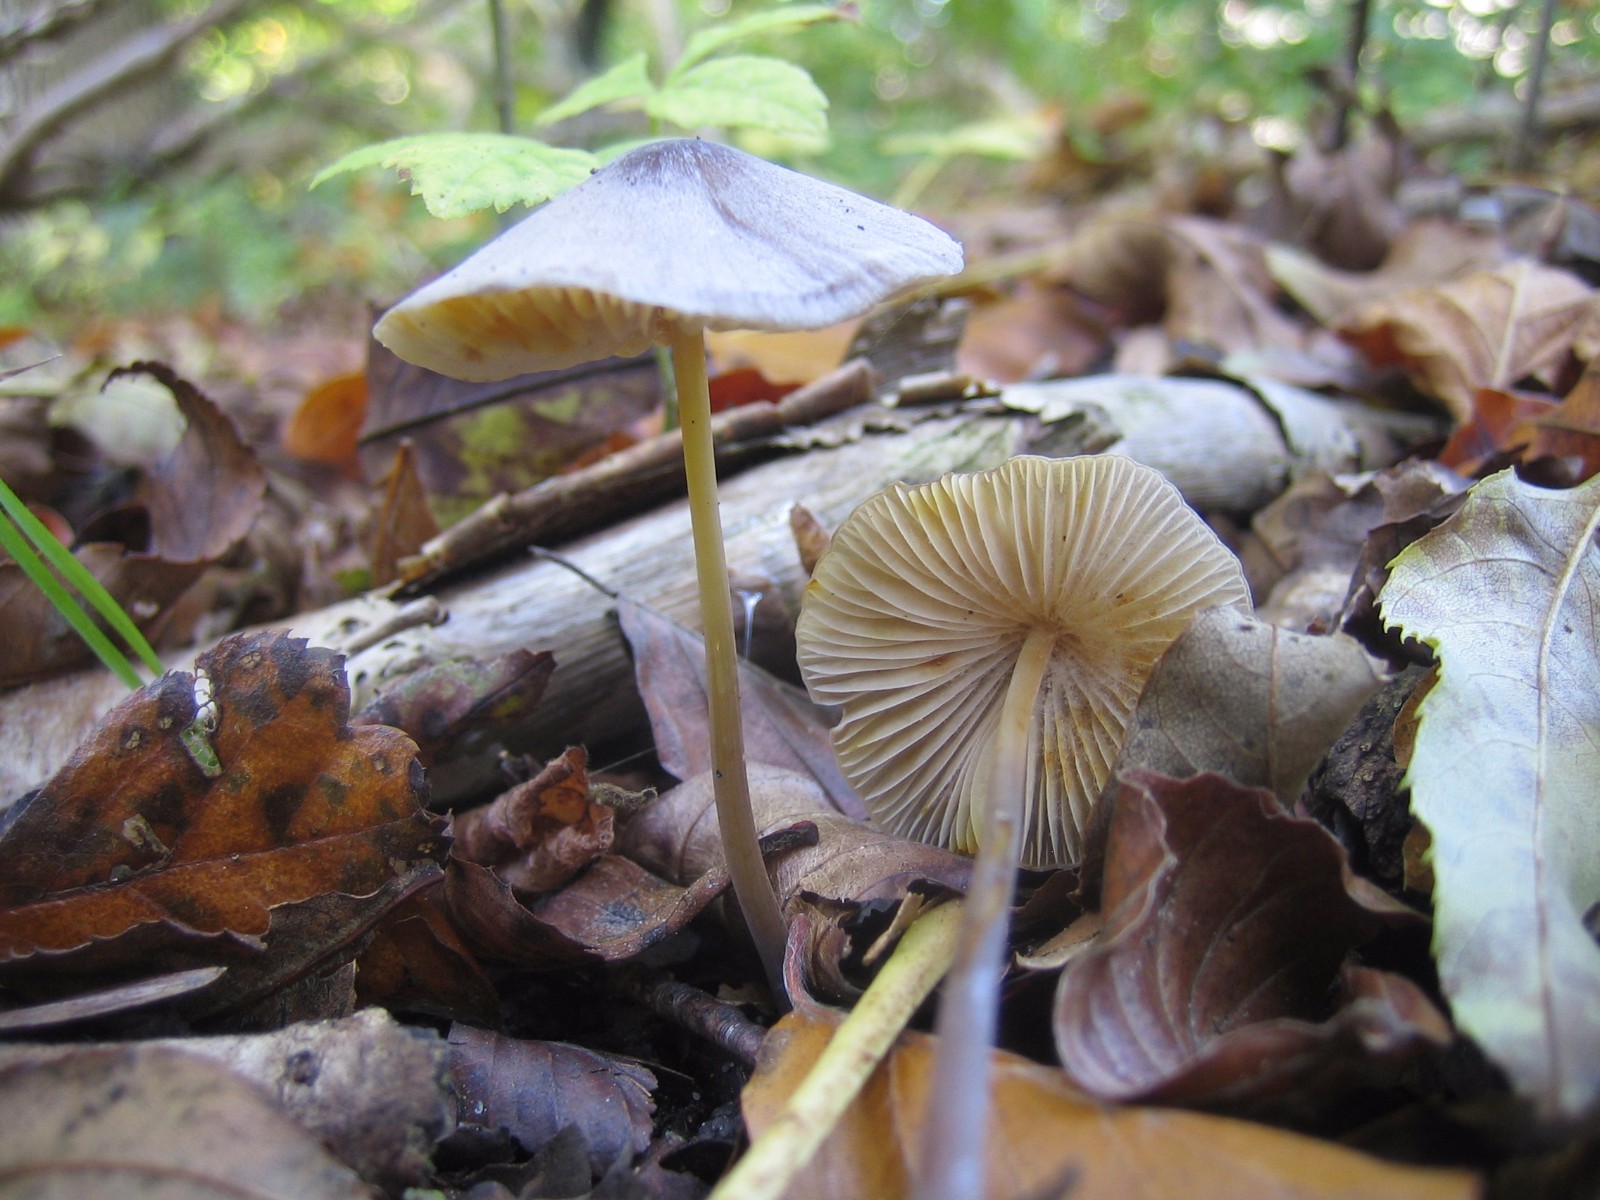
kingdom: Fungi
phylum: Basidiomycota
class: Agaricomycetes
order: Agaricales
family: Mycenaceae
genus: Mycena
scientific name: Mycena crocata
